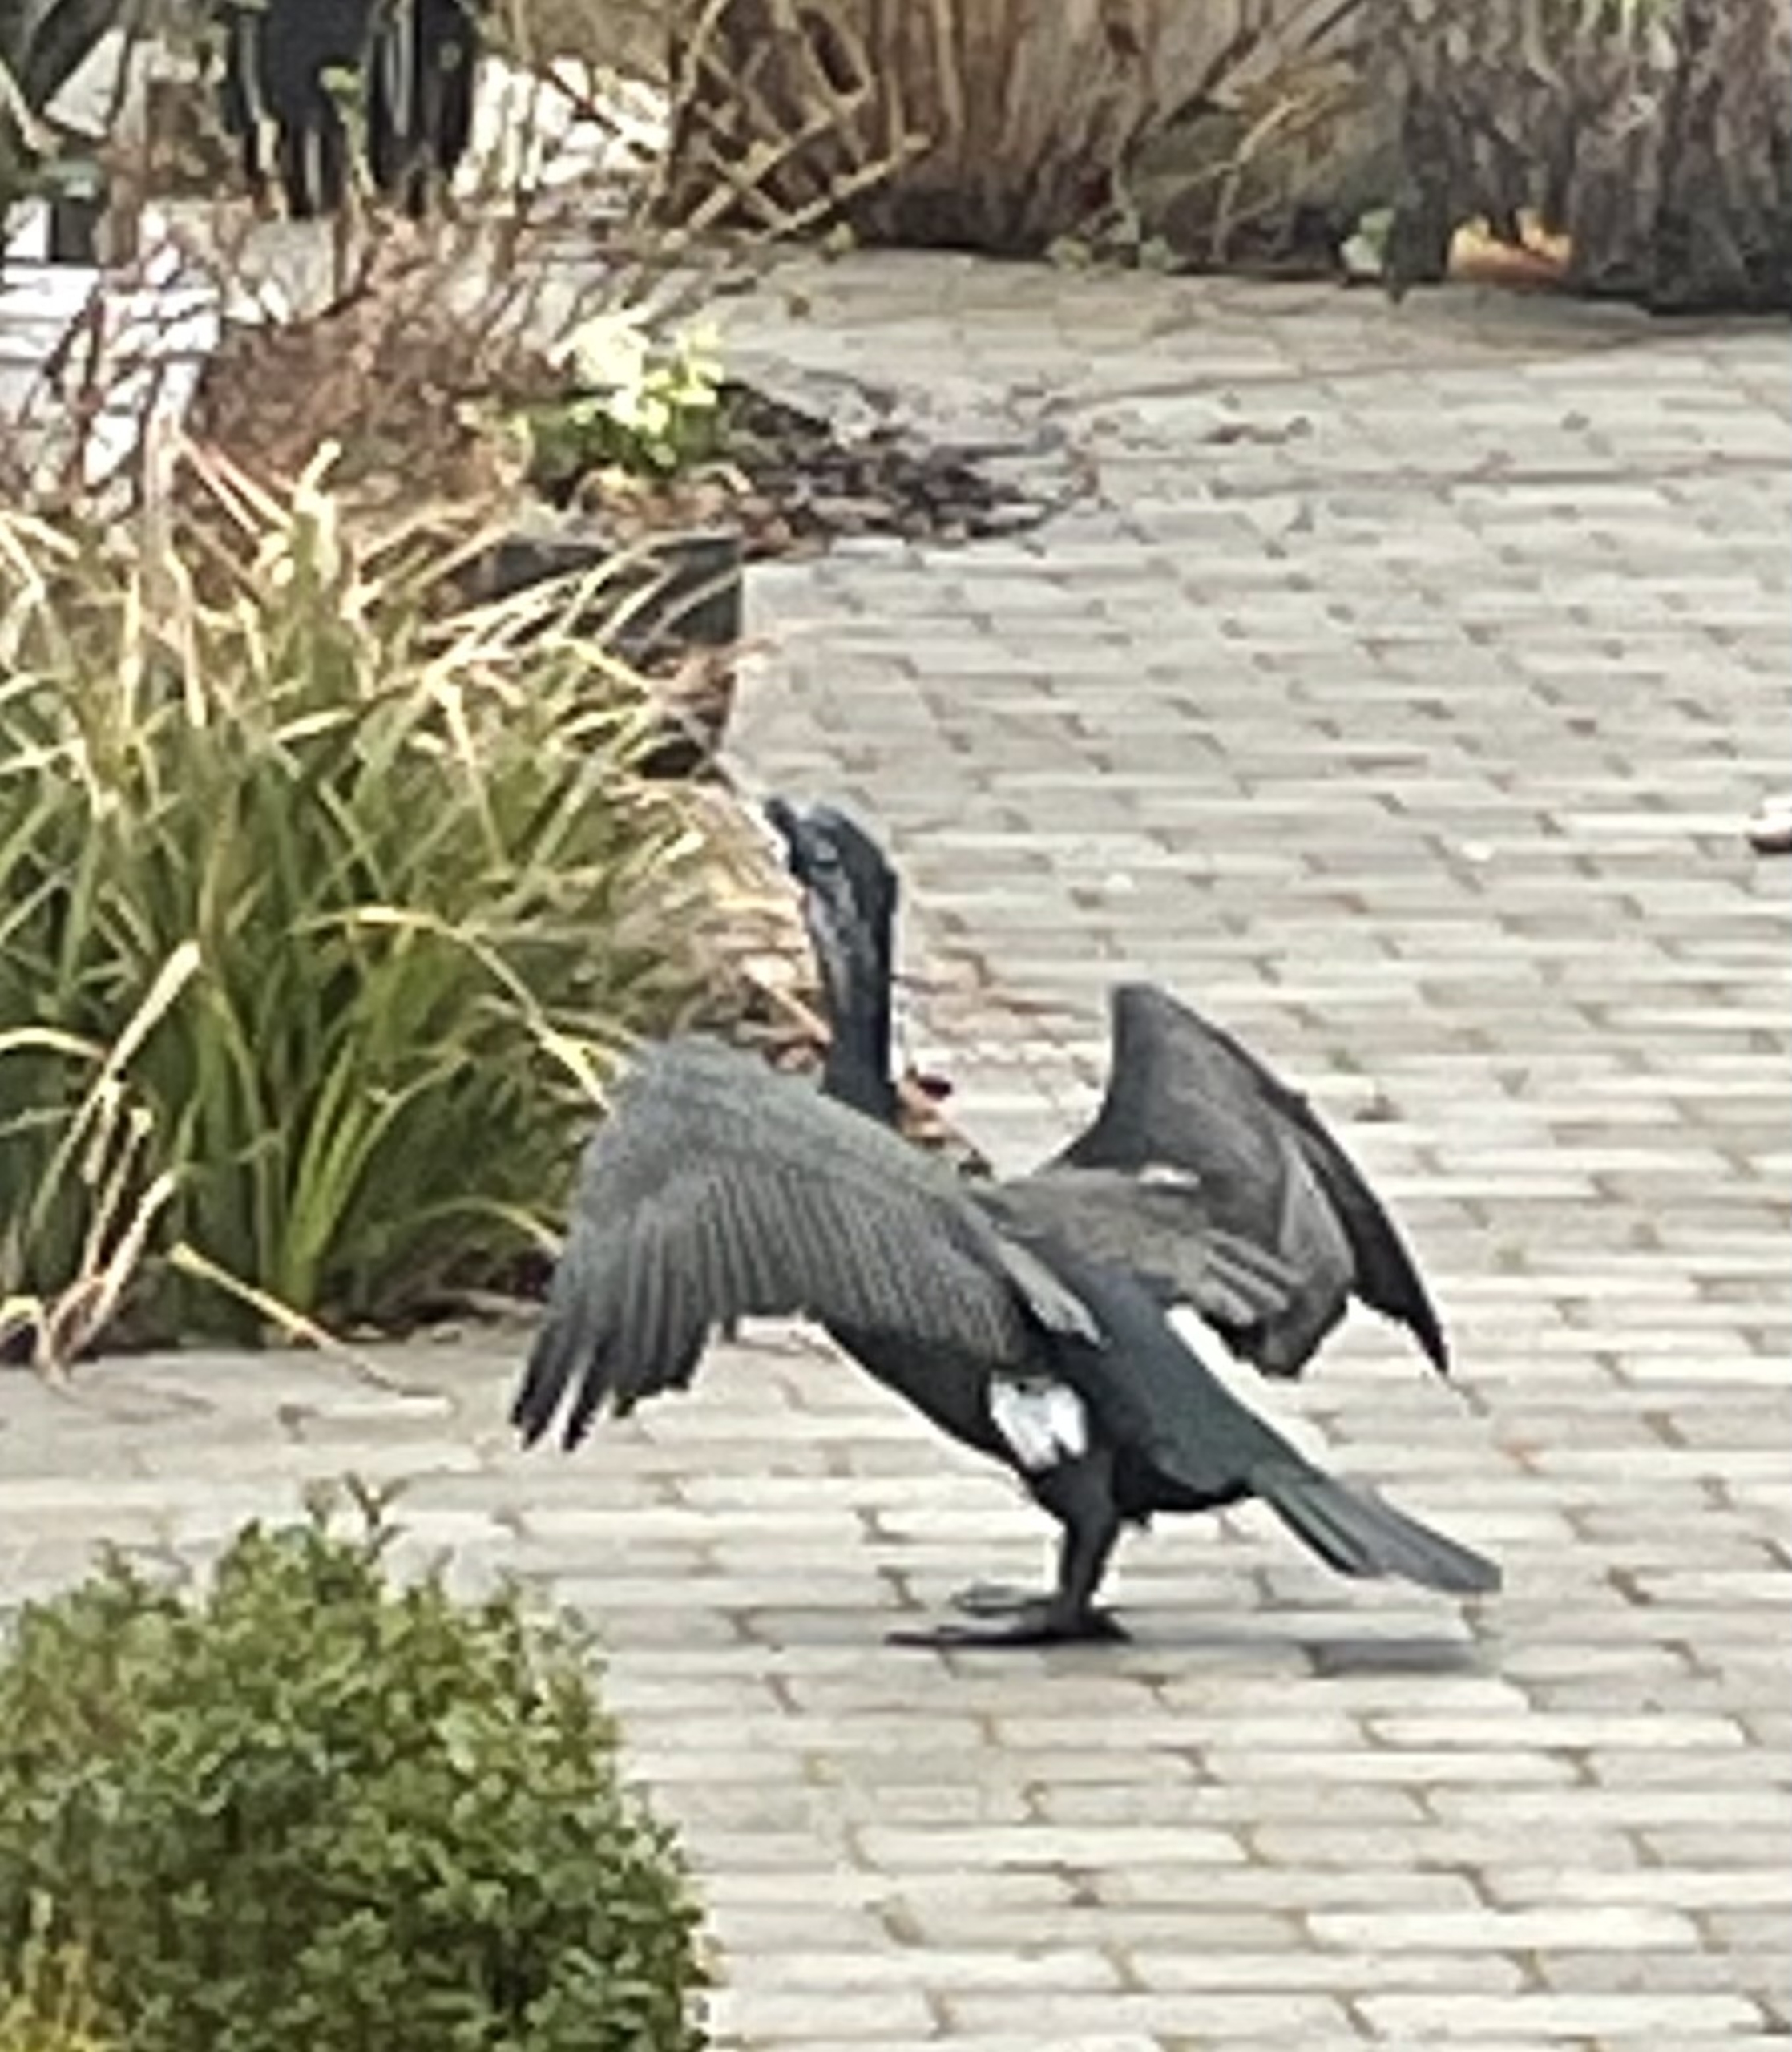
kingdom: Animalia
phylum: Chordata
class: Aves
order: Suliformes
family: Phalacrocoracidae
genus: Phalacrocorax
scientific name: Phalacrocorax carbo
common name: Skarv
